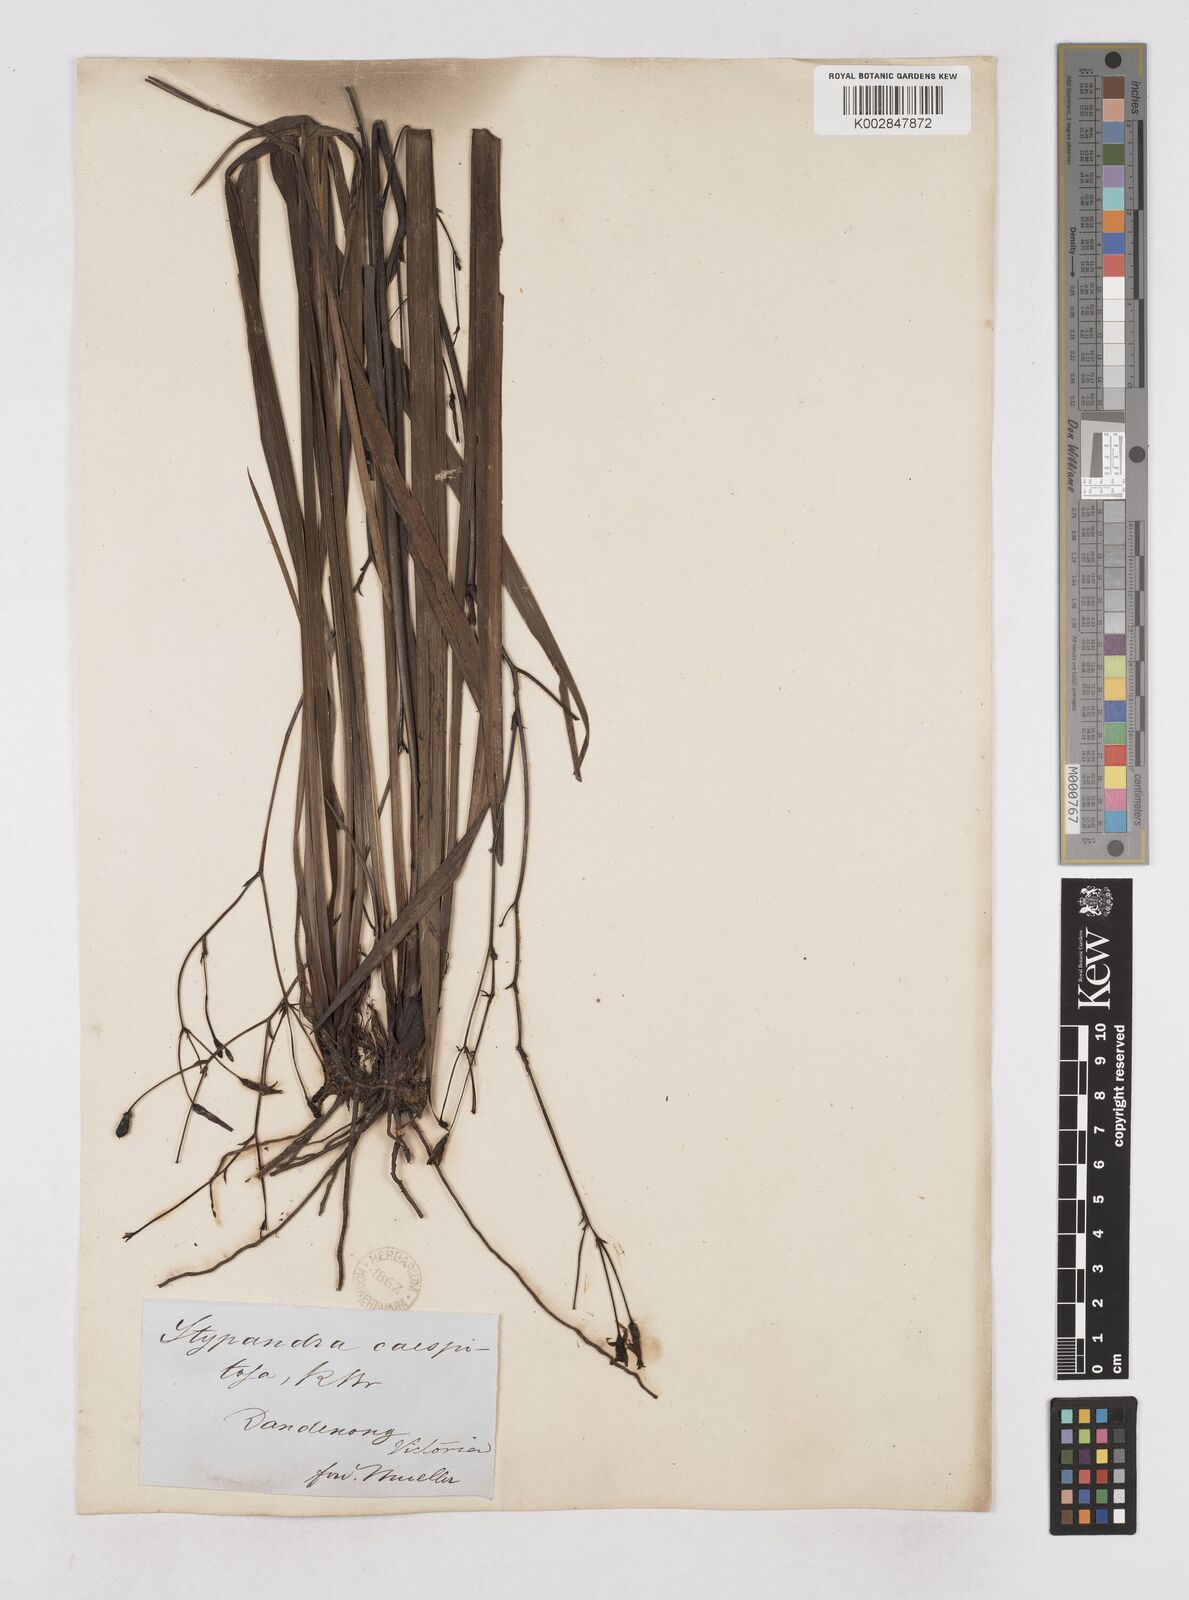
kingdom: Plantae
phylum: Tracheophyta
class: Liliopsida
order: Asparagales
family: Asphodelaceae
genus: Thelionema
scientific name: Thelionema caespitosum
